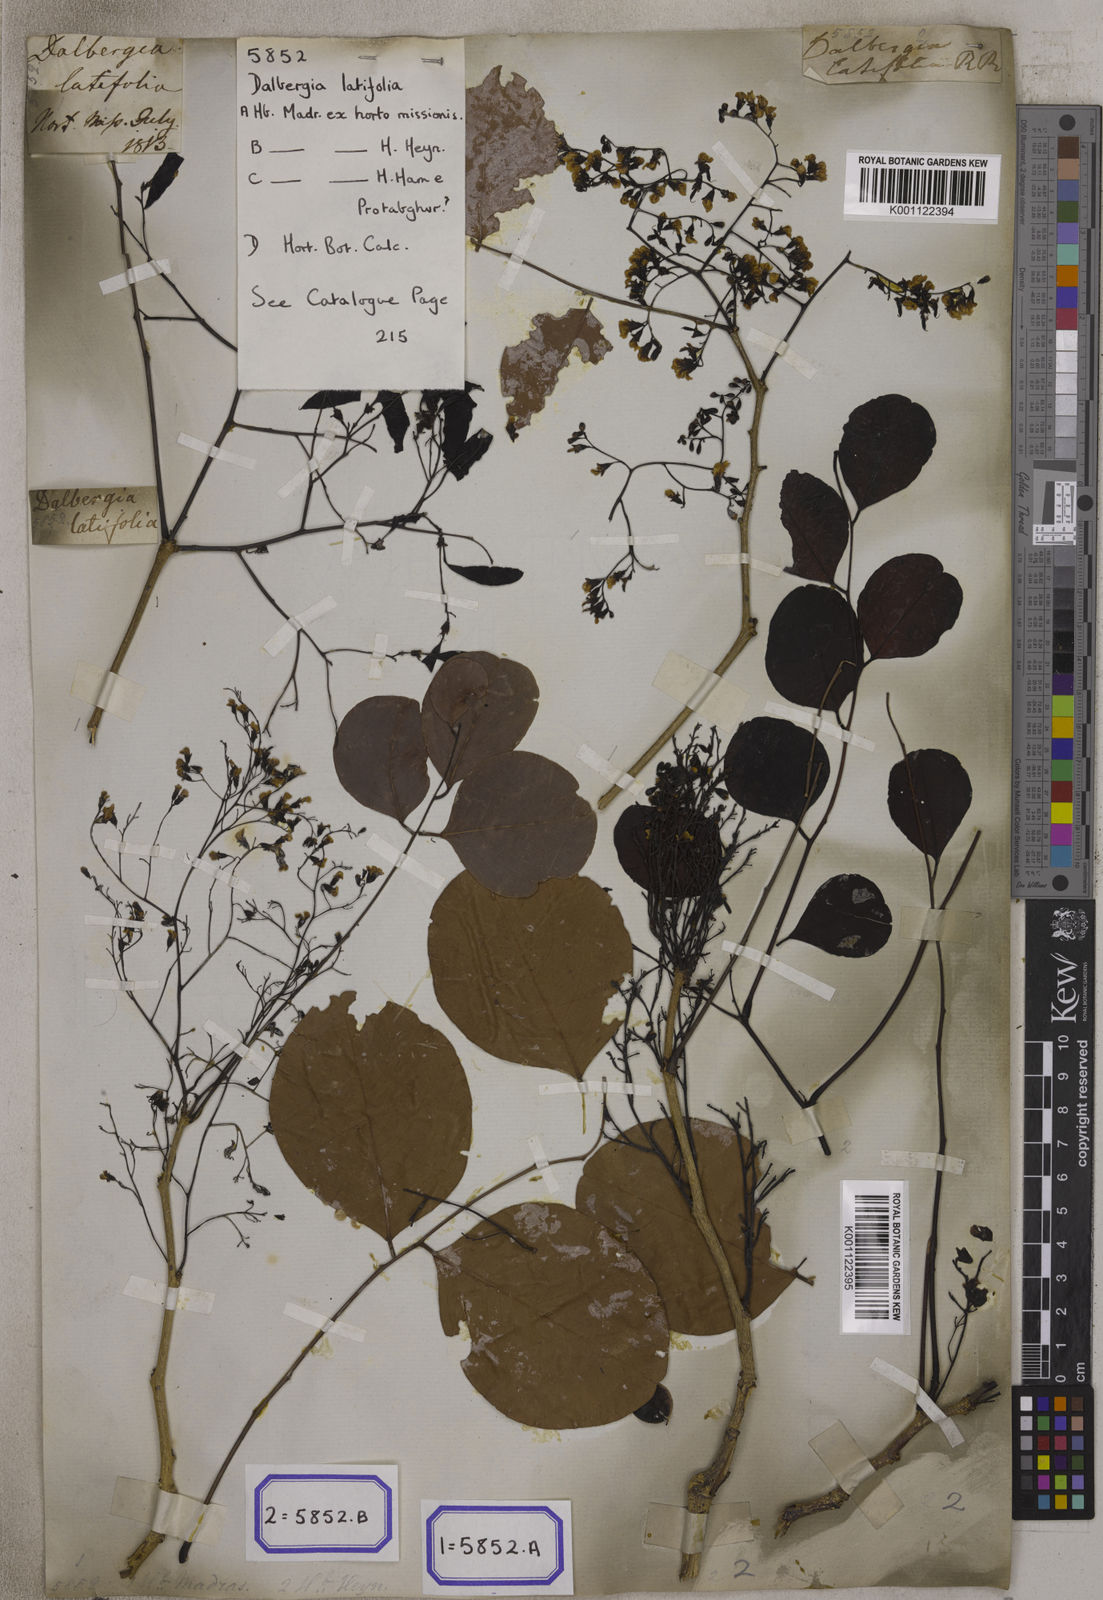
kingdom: Plantae
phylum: Tracheophyta
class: Magnoliopsida
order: Fabales
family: Fabaceae
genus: Dalbergia
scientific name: Dalbergia latifolia
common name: Bombay blackwood
